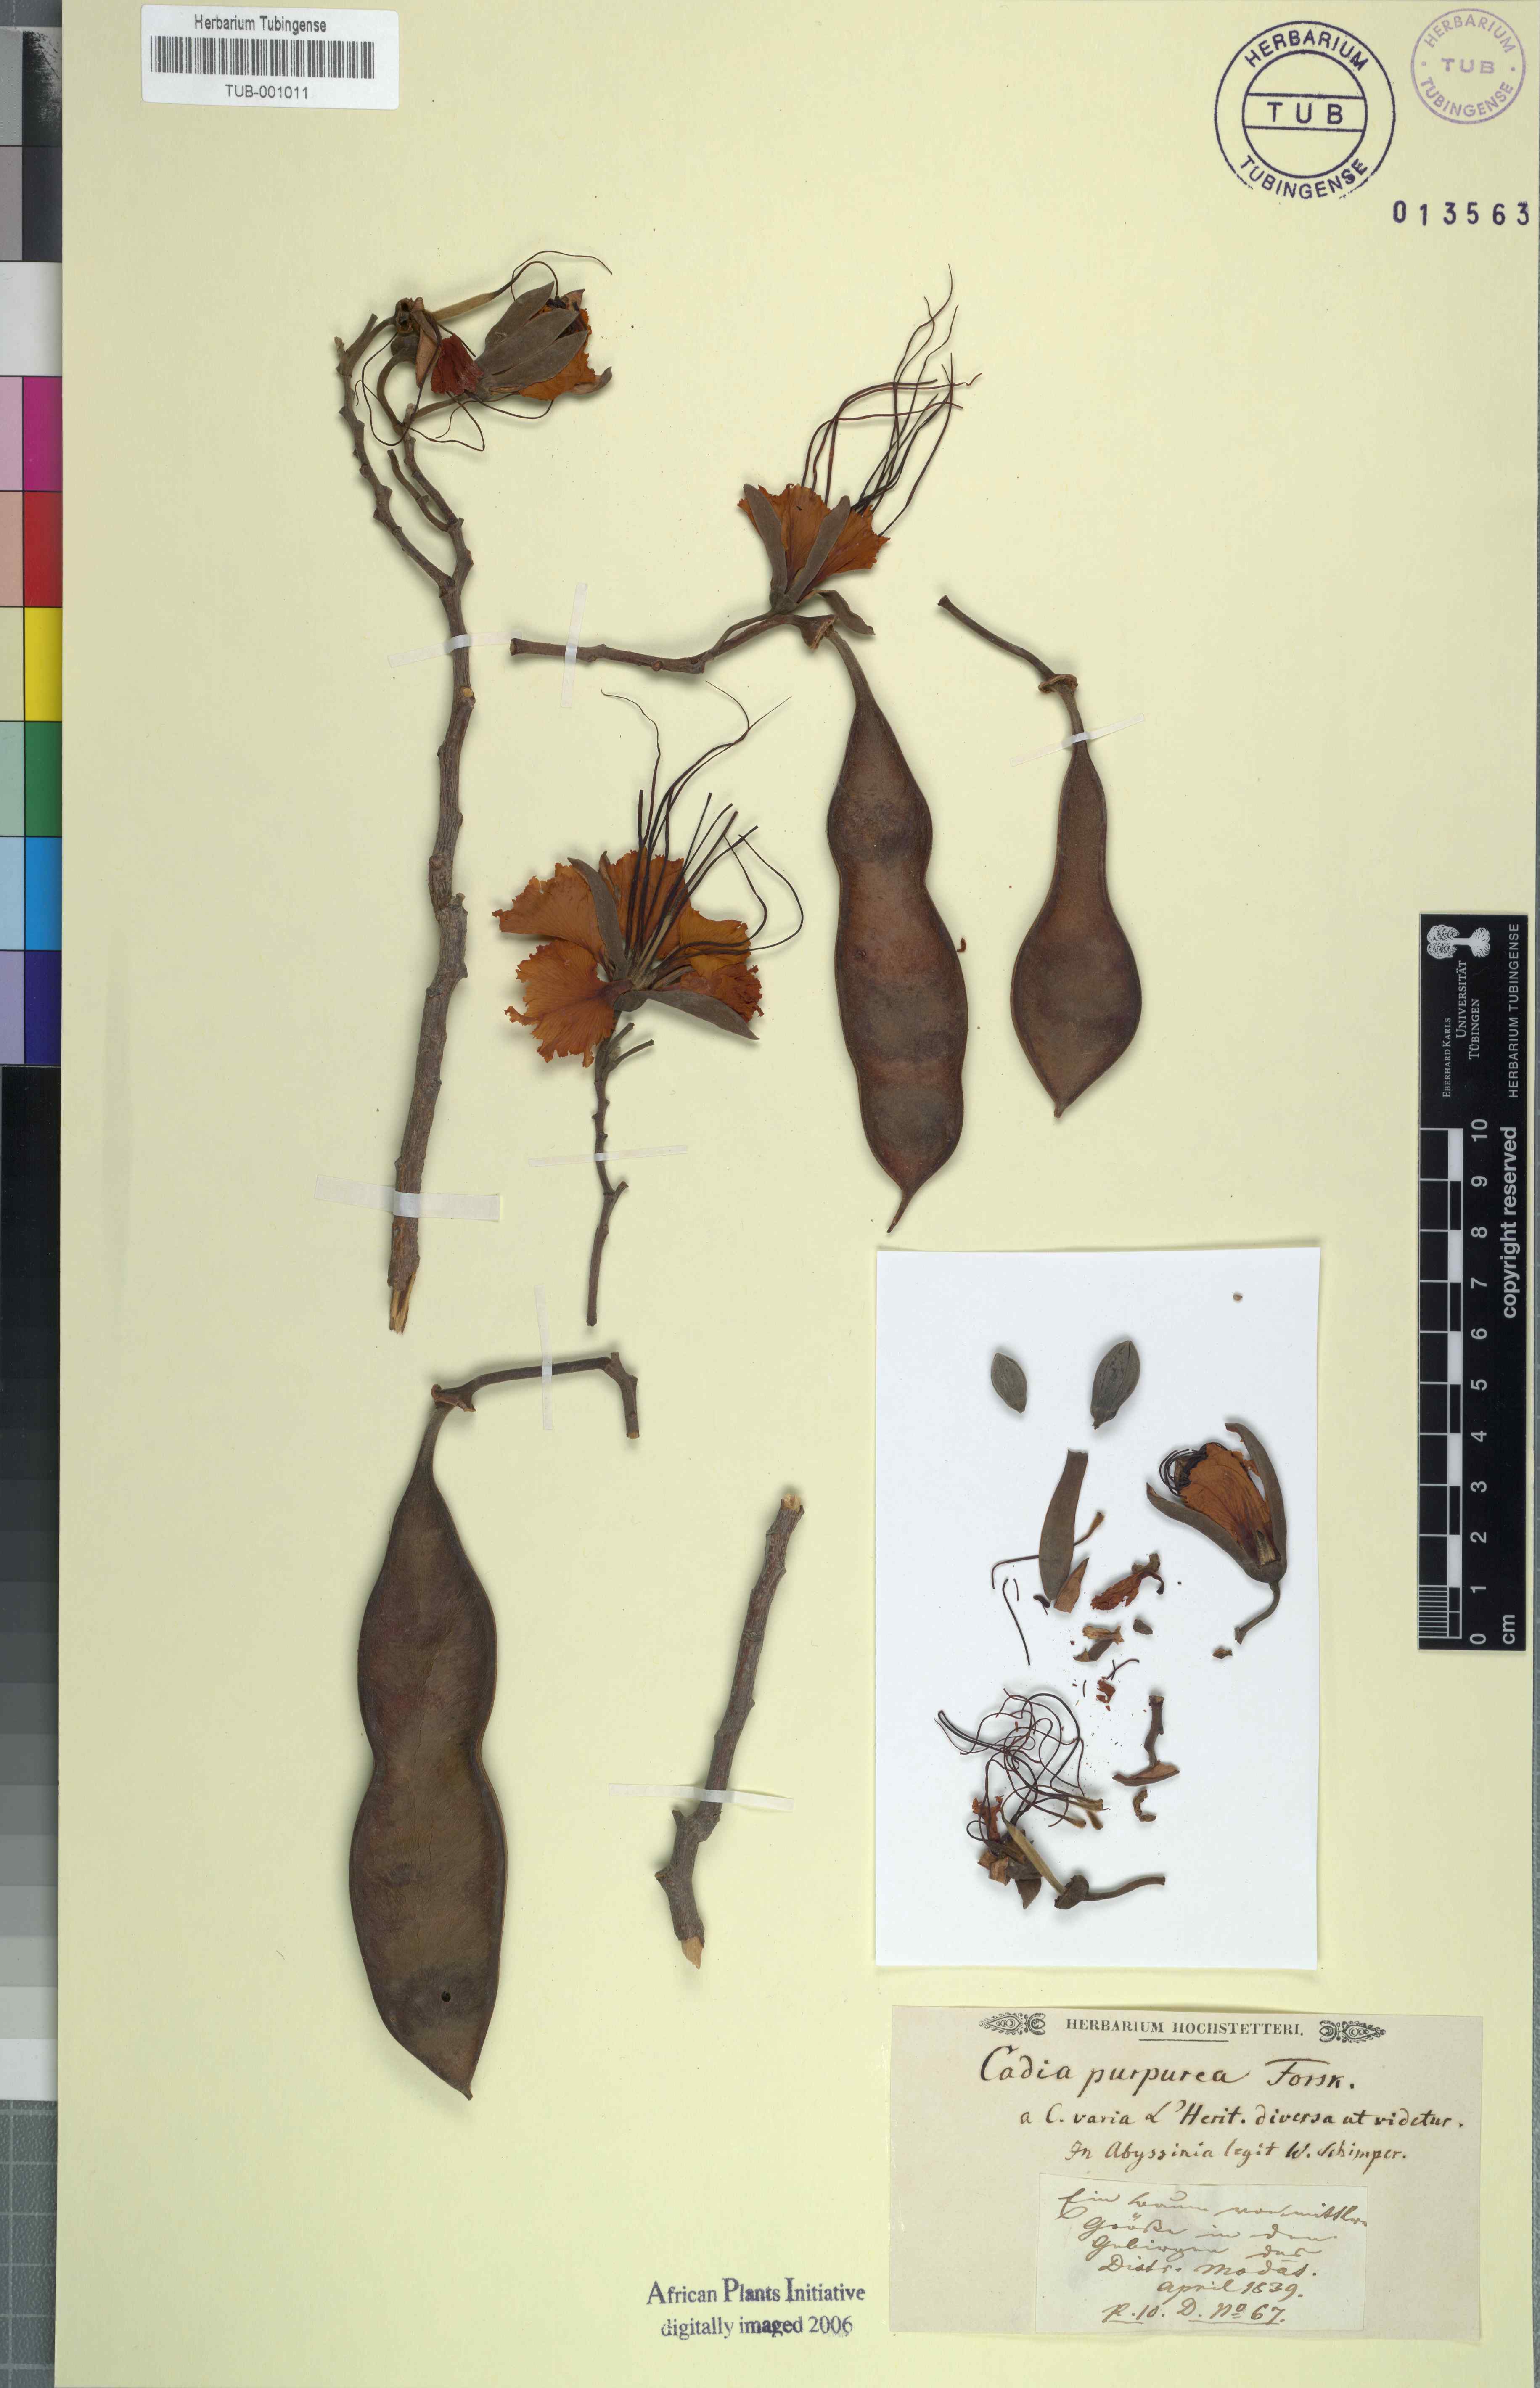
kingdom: Plantae
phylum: Tracheophyta
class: Magnoliopsida
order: Fabales
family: Fabaceae
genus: Cadia
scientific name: Cadia purpurea
